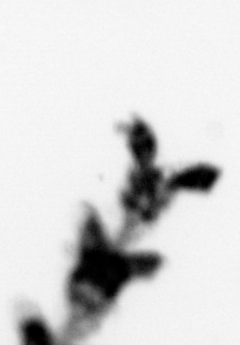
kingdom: Animalia
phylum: Cnidaria
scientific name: Cnidaria
